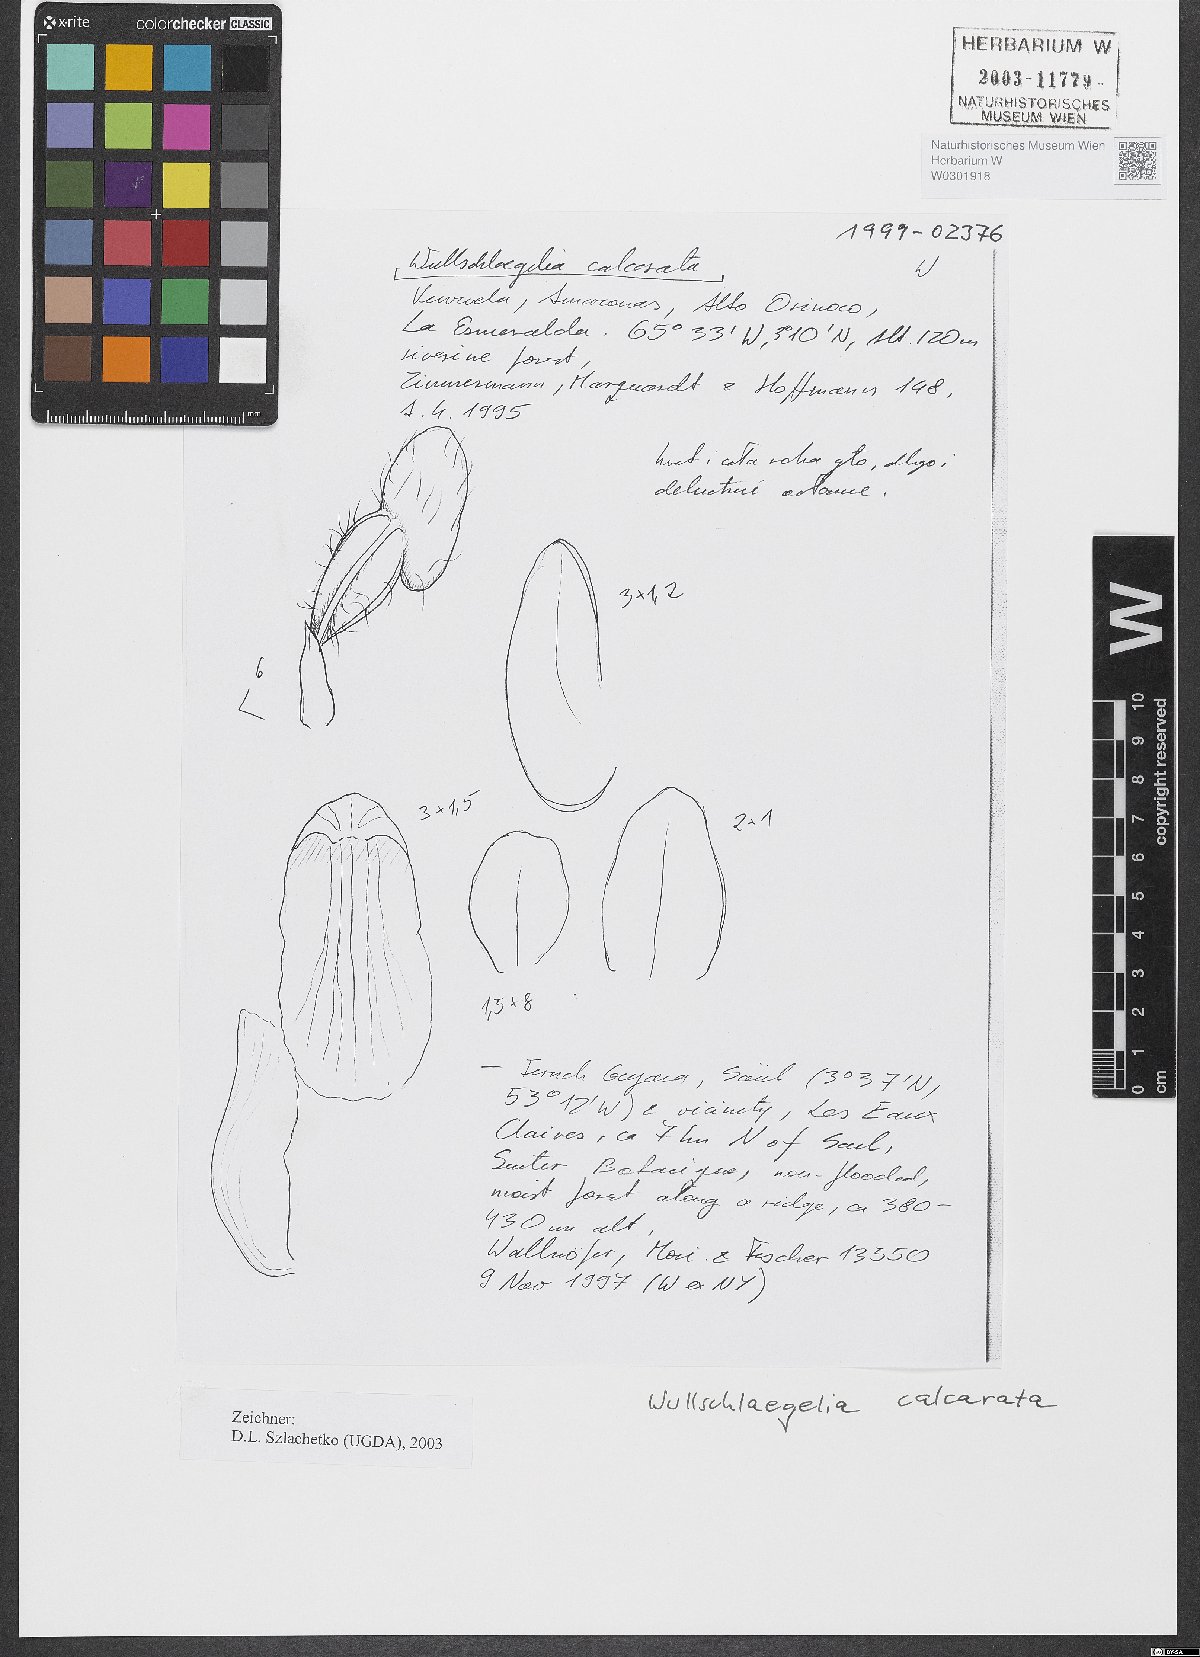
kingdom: Plantae
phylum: Tracheophyta
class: Liliopsida
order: Asparagales
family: Orchidaceae
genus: Wullschlaegelia
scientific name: Wullschlaegelia calcarata
